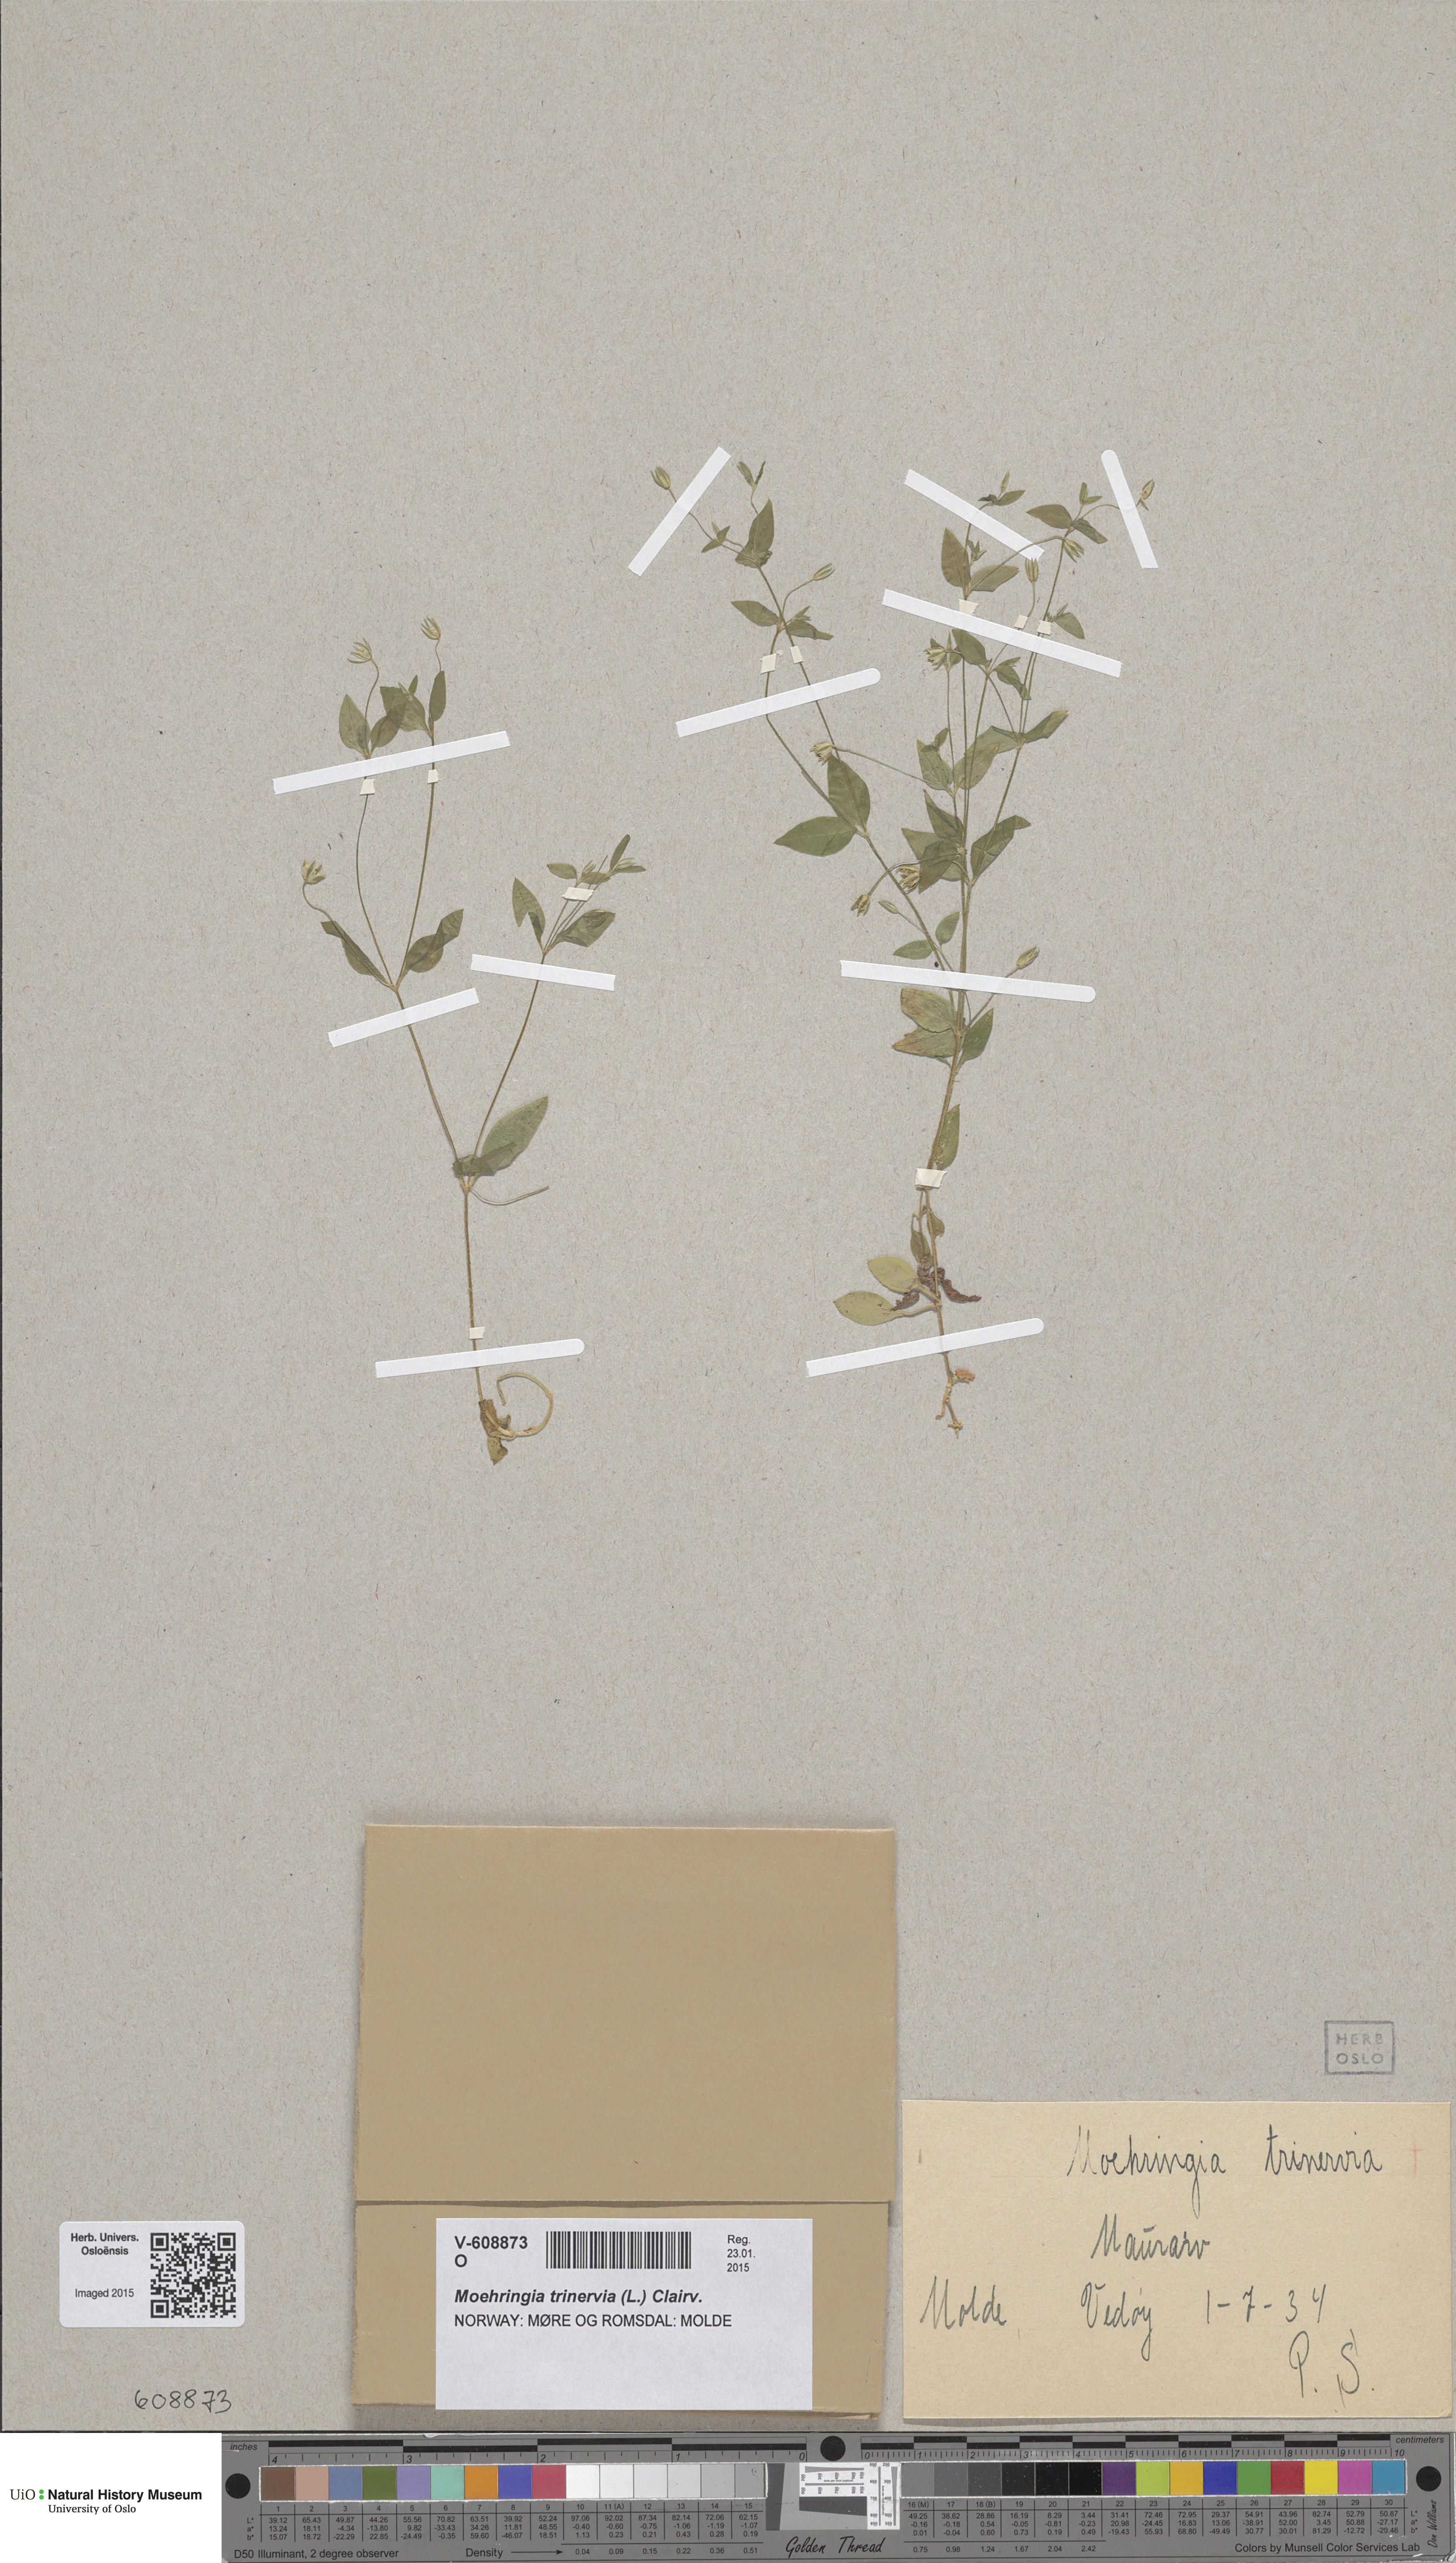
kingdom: Plantae
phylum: Tracheophyta
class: Magnoliopsida
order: Caryophyllales
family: Caryophyllaceae
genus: Moehringia
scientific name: Moehringia trinervia
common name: Three-nerved sandwort
